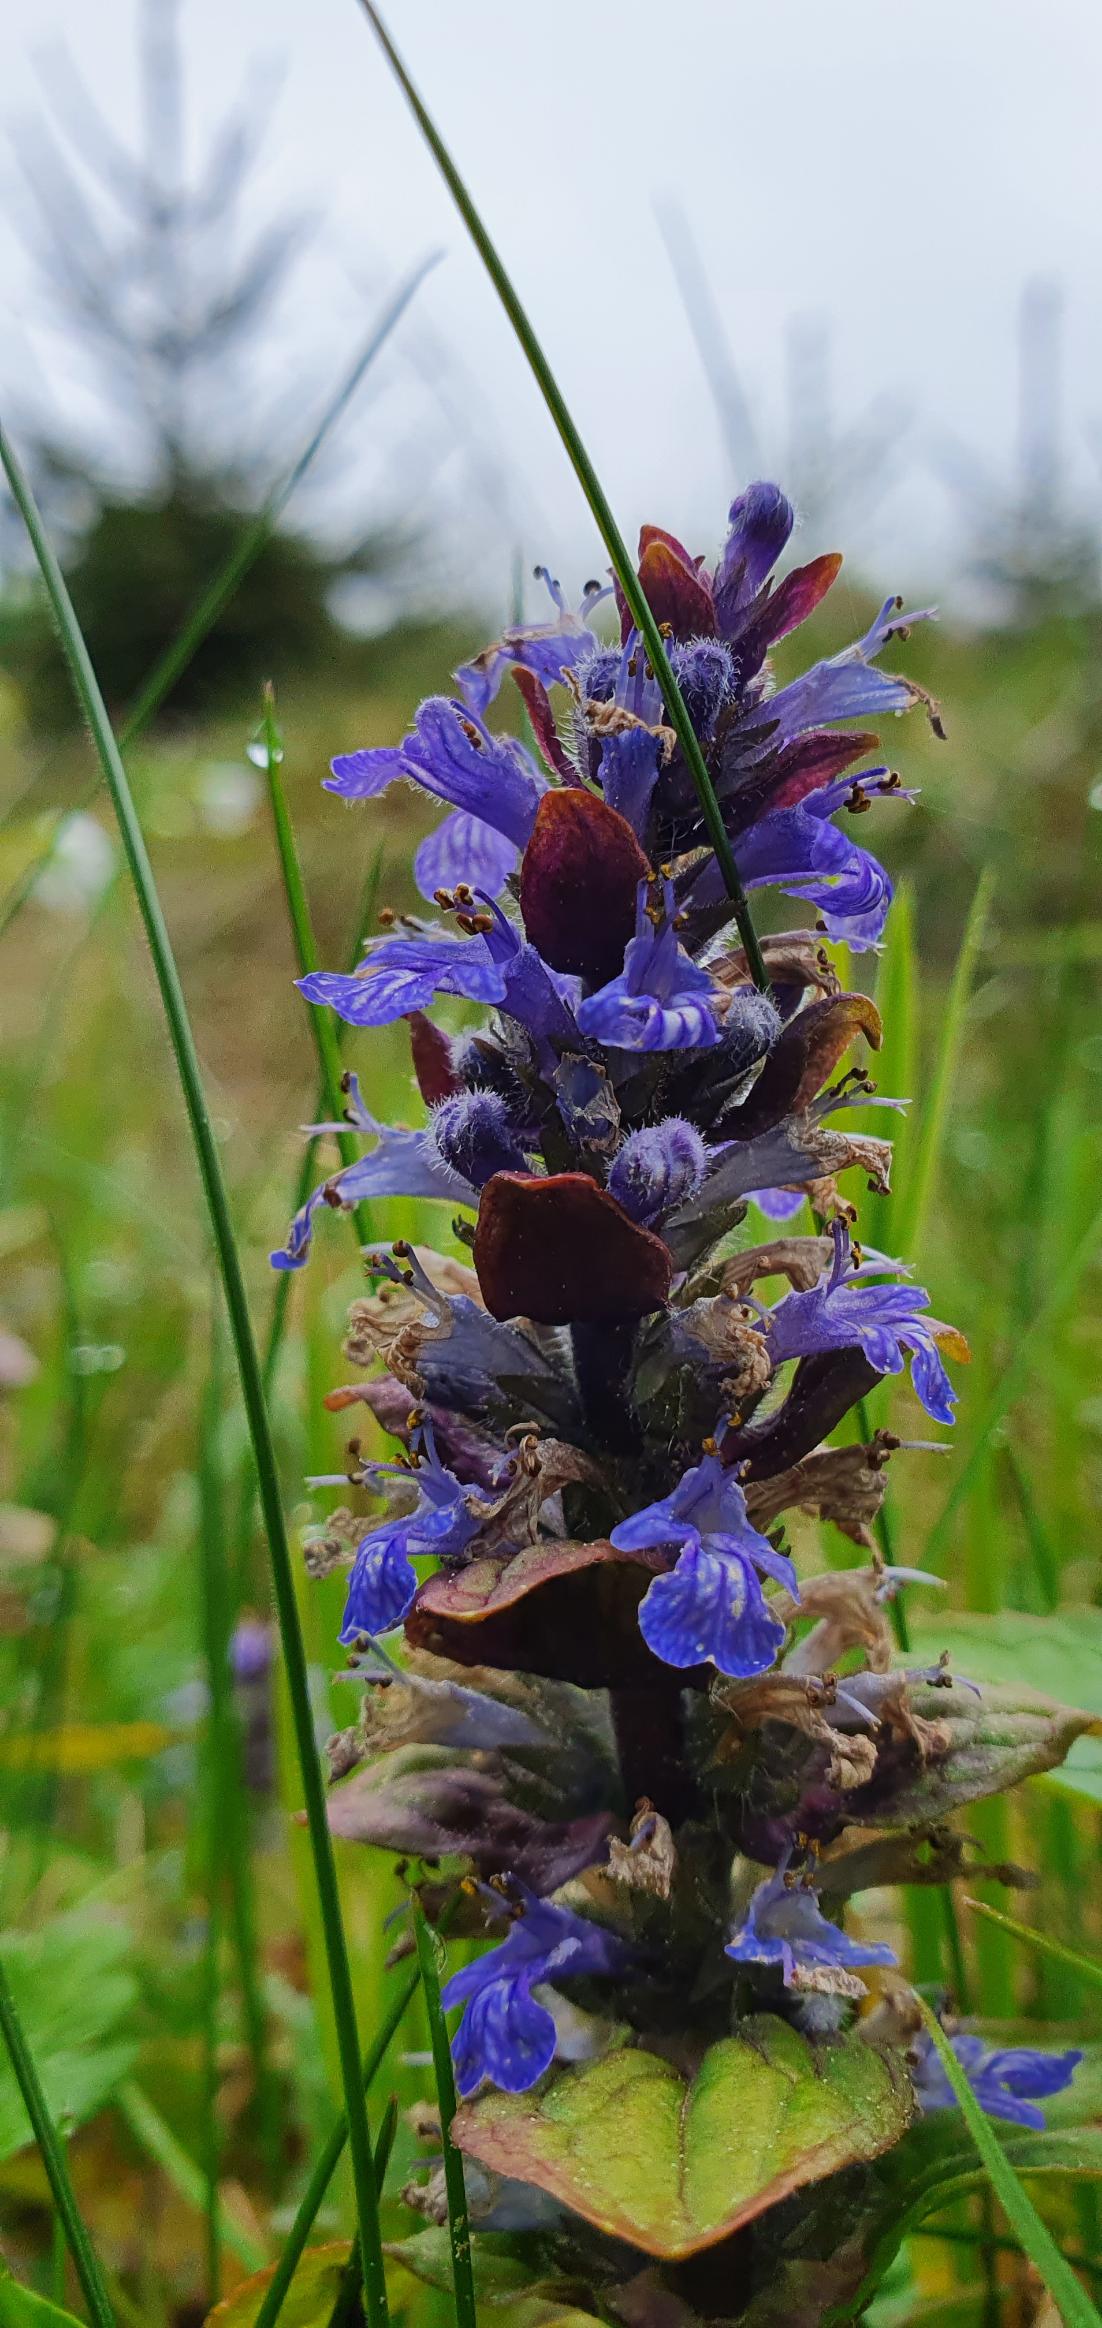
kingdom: Plantae
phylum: Tracheophyta
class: Magnoliopsida
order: Lamiales
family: Lamiaceae
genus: Ajuga
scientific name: Ajuga reptans
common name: Krybende læbeløs
